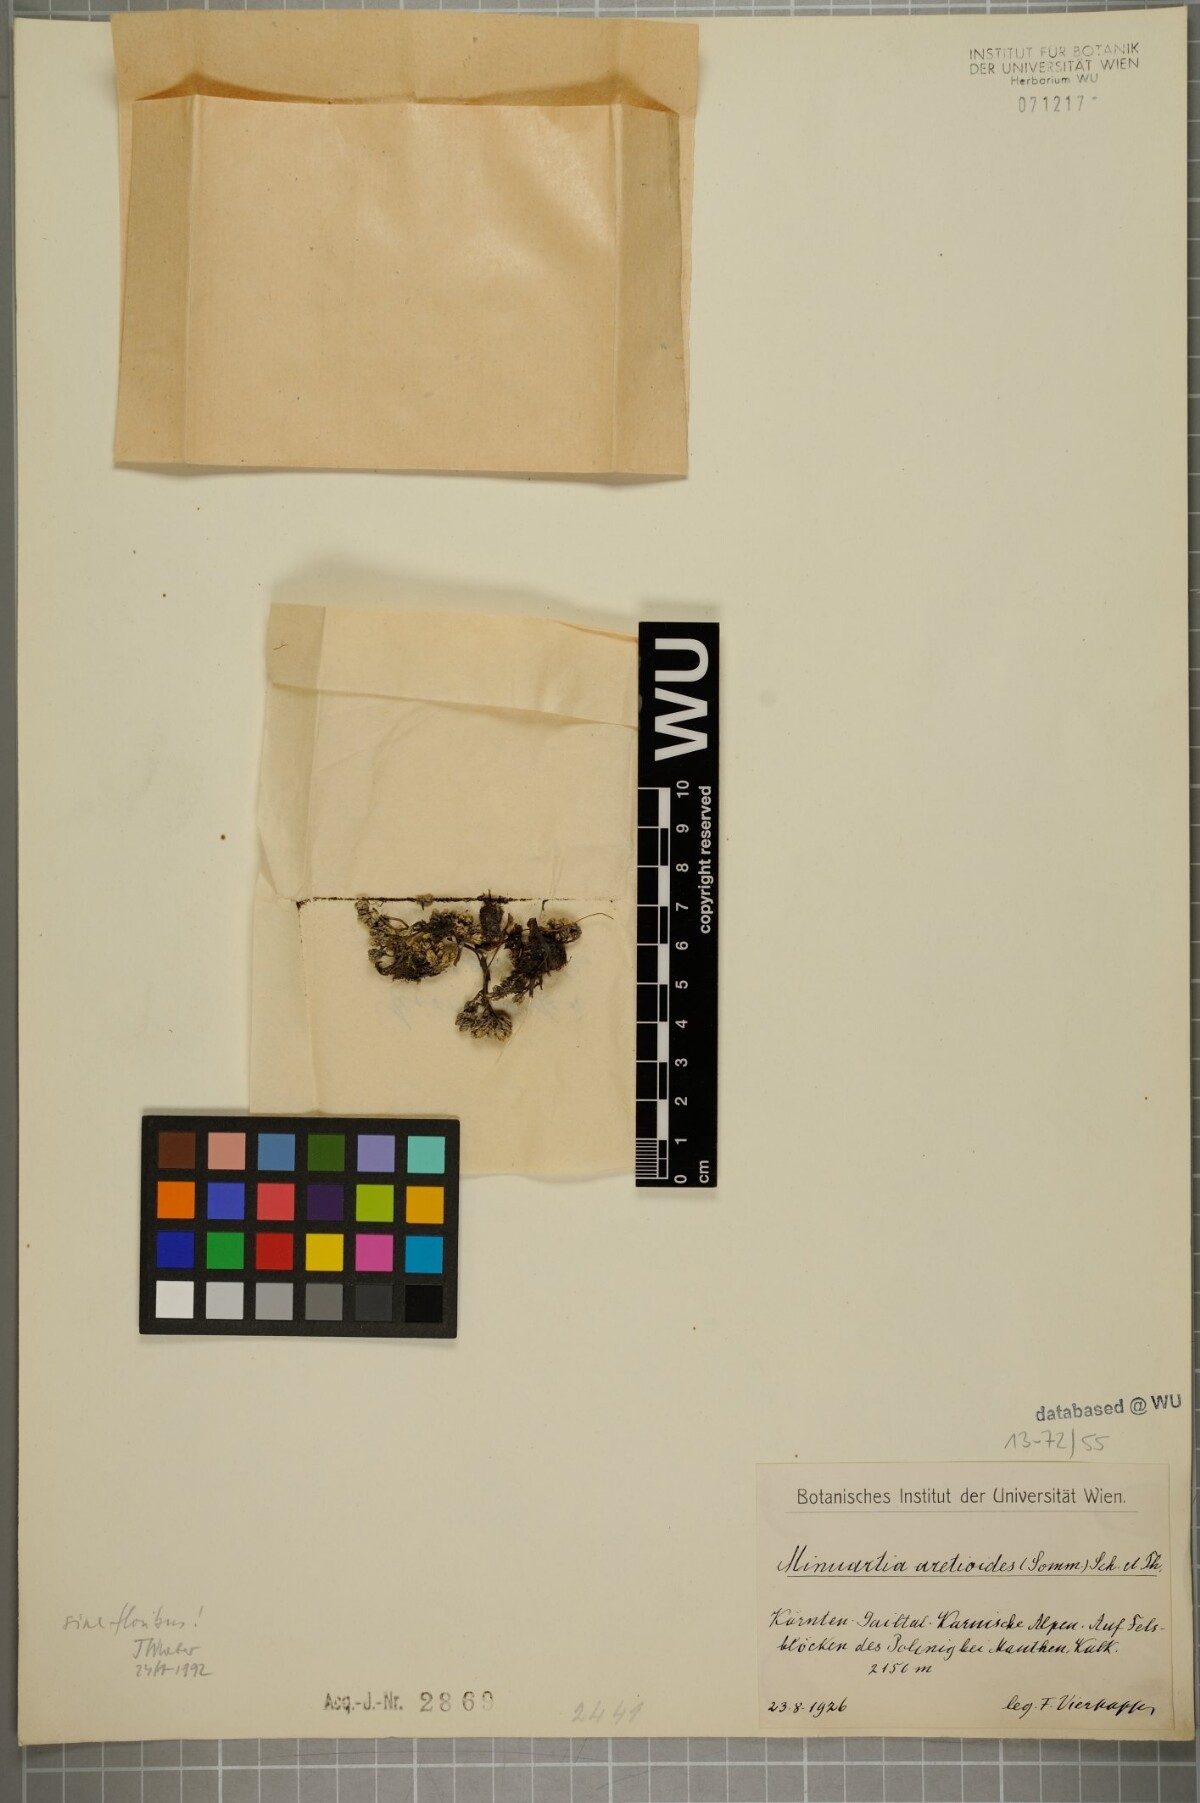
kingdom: Plantae
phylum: Tracheophyta
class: Magnoliopsida
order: Caryophyllales
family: Caryophyllaceae
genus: Facchinia
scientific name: Facchinia cherlerioides
